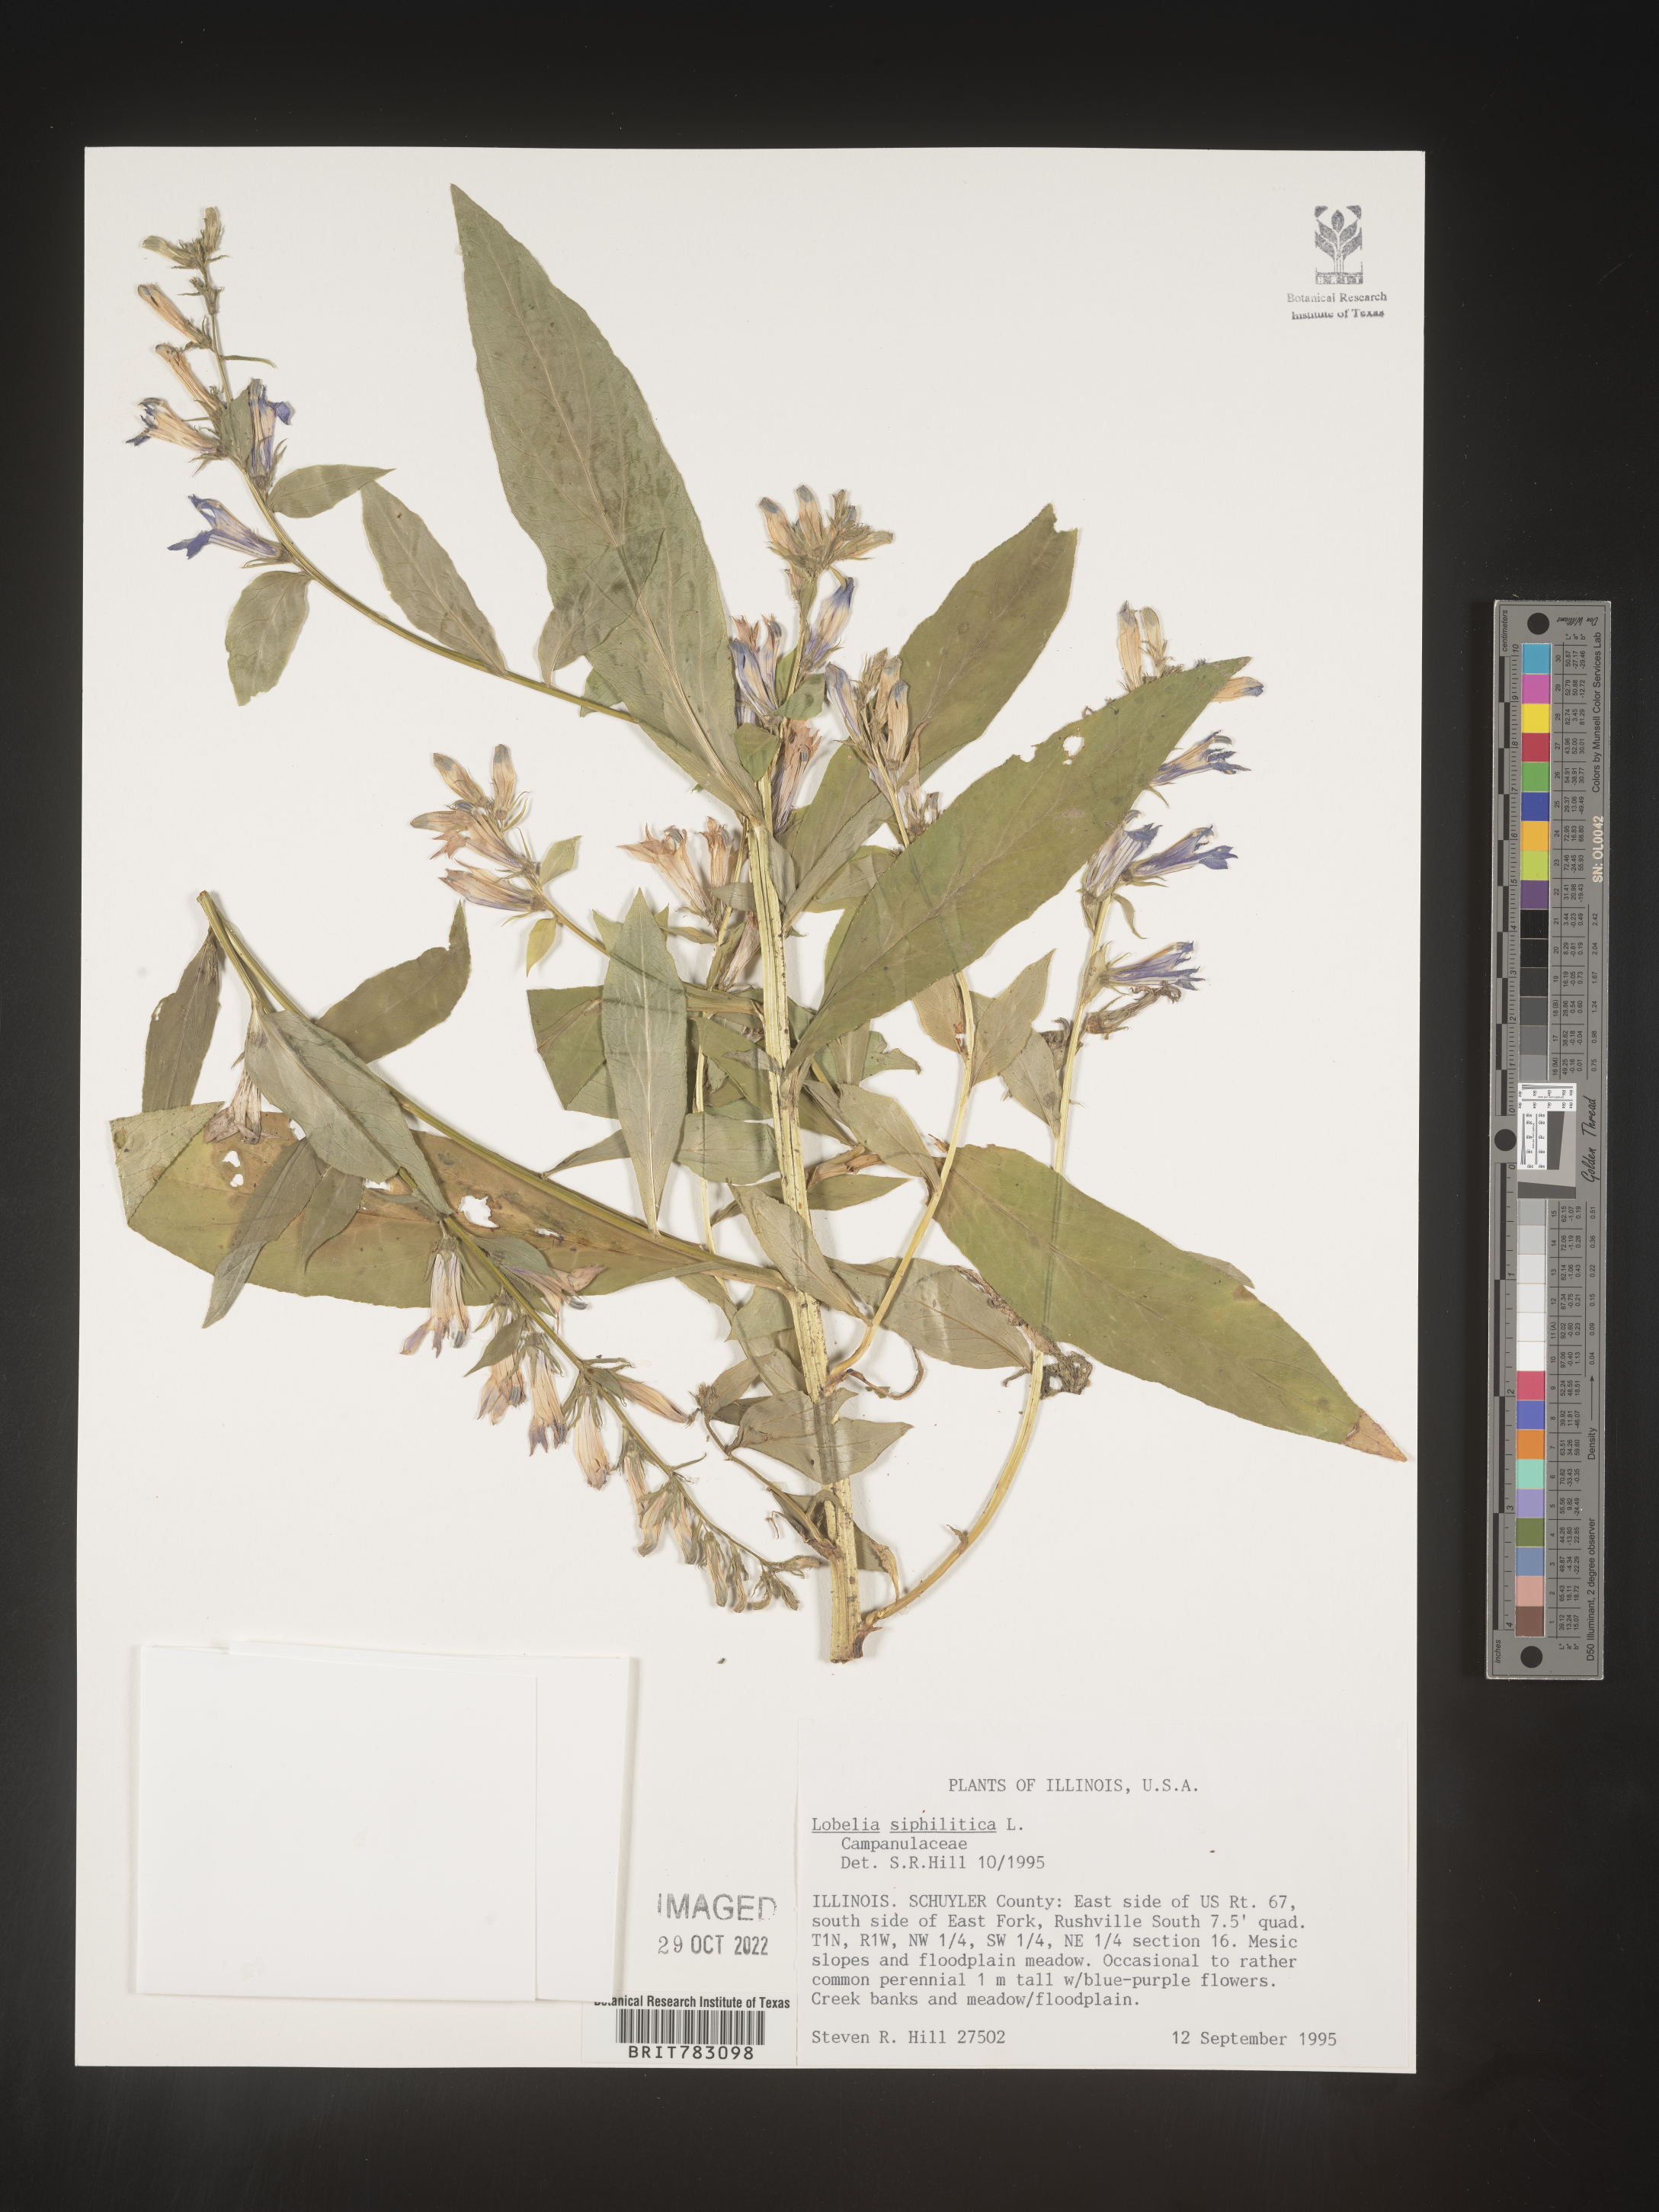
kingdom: Plantae
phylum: Tracheophyta
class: Magnoliopsida
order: Asterales
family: Campanulaceae
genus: Lobelia
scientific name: Lobelia siphilitica
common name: Great lobelia
